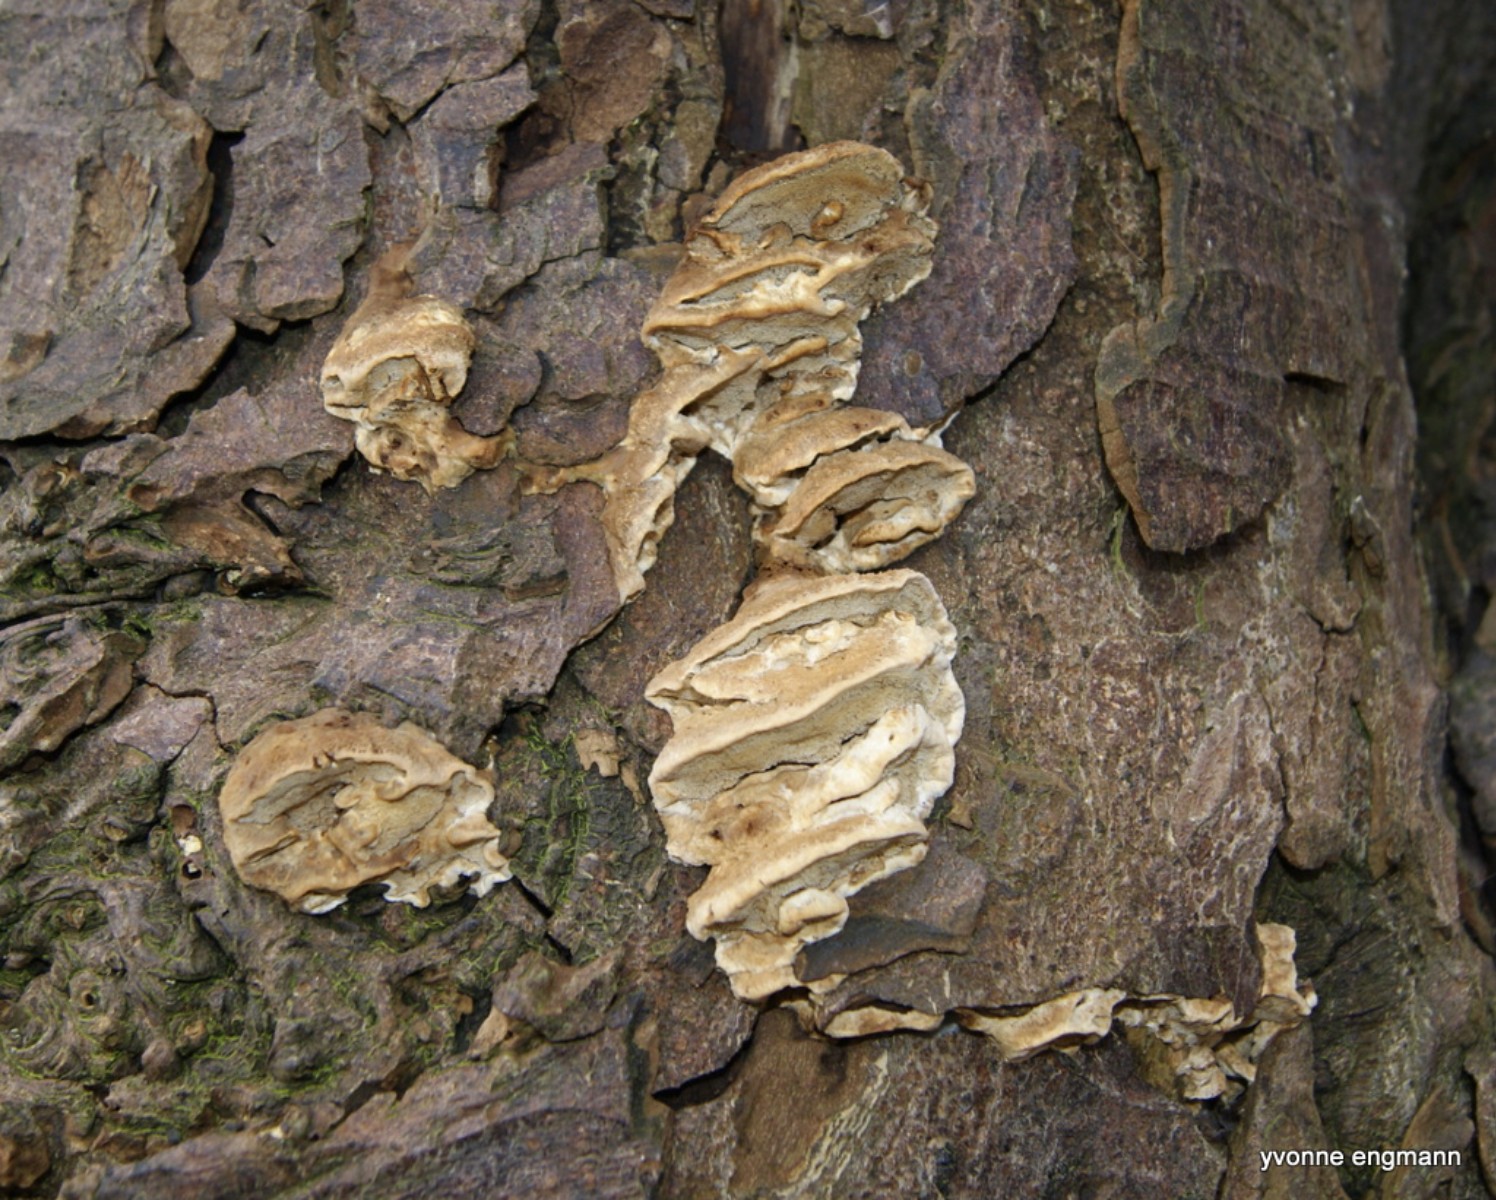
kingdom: Fungi
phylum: Basidiomycota
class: Agaricomycetes
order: Polyporales
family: Phanerochaetaceae
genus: Bjerkandera
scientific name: Bjerkandera fumosa
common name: grågul sodporesvamp
